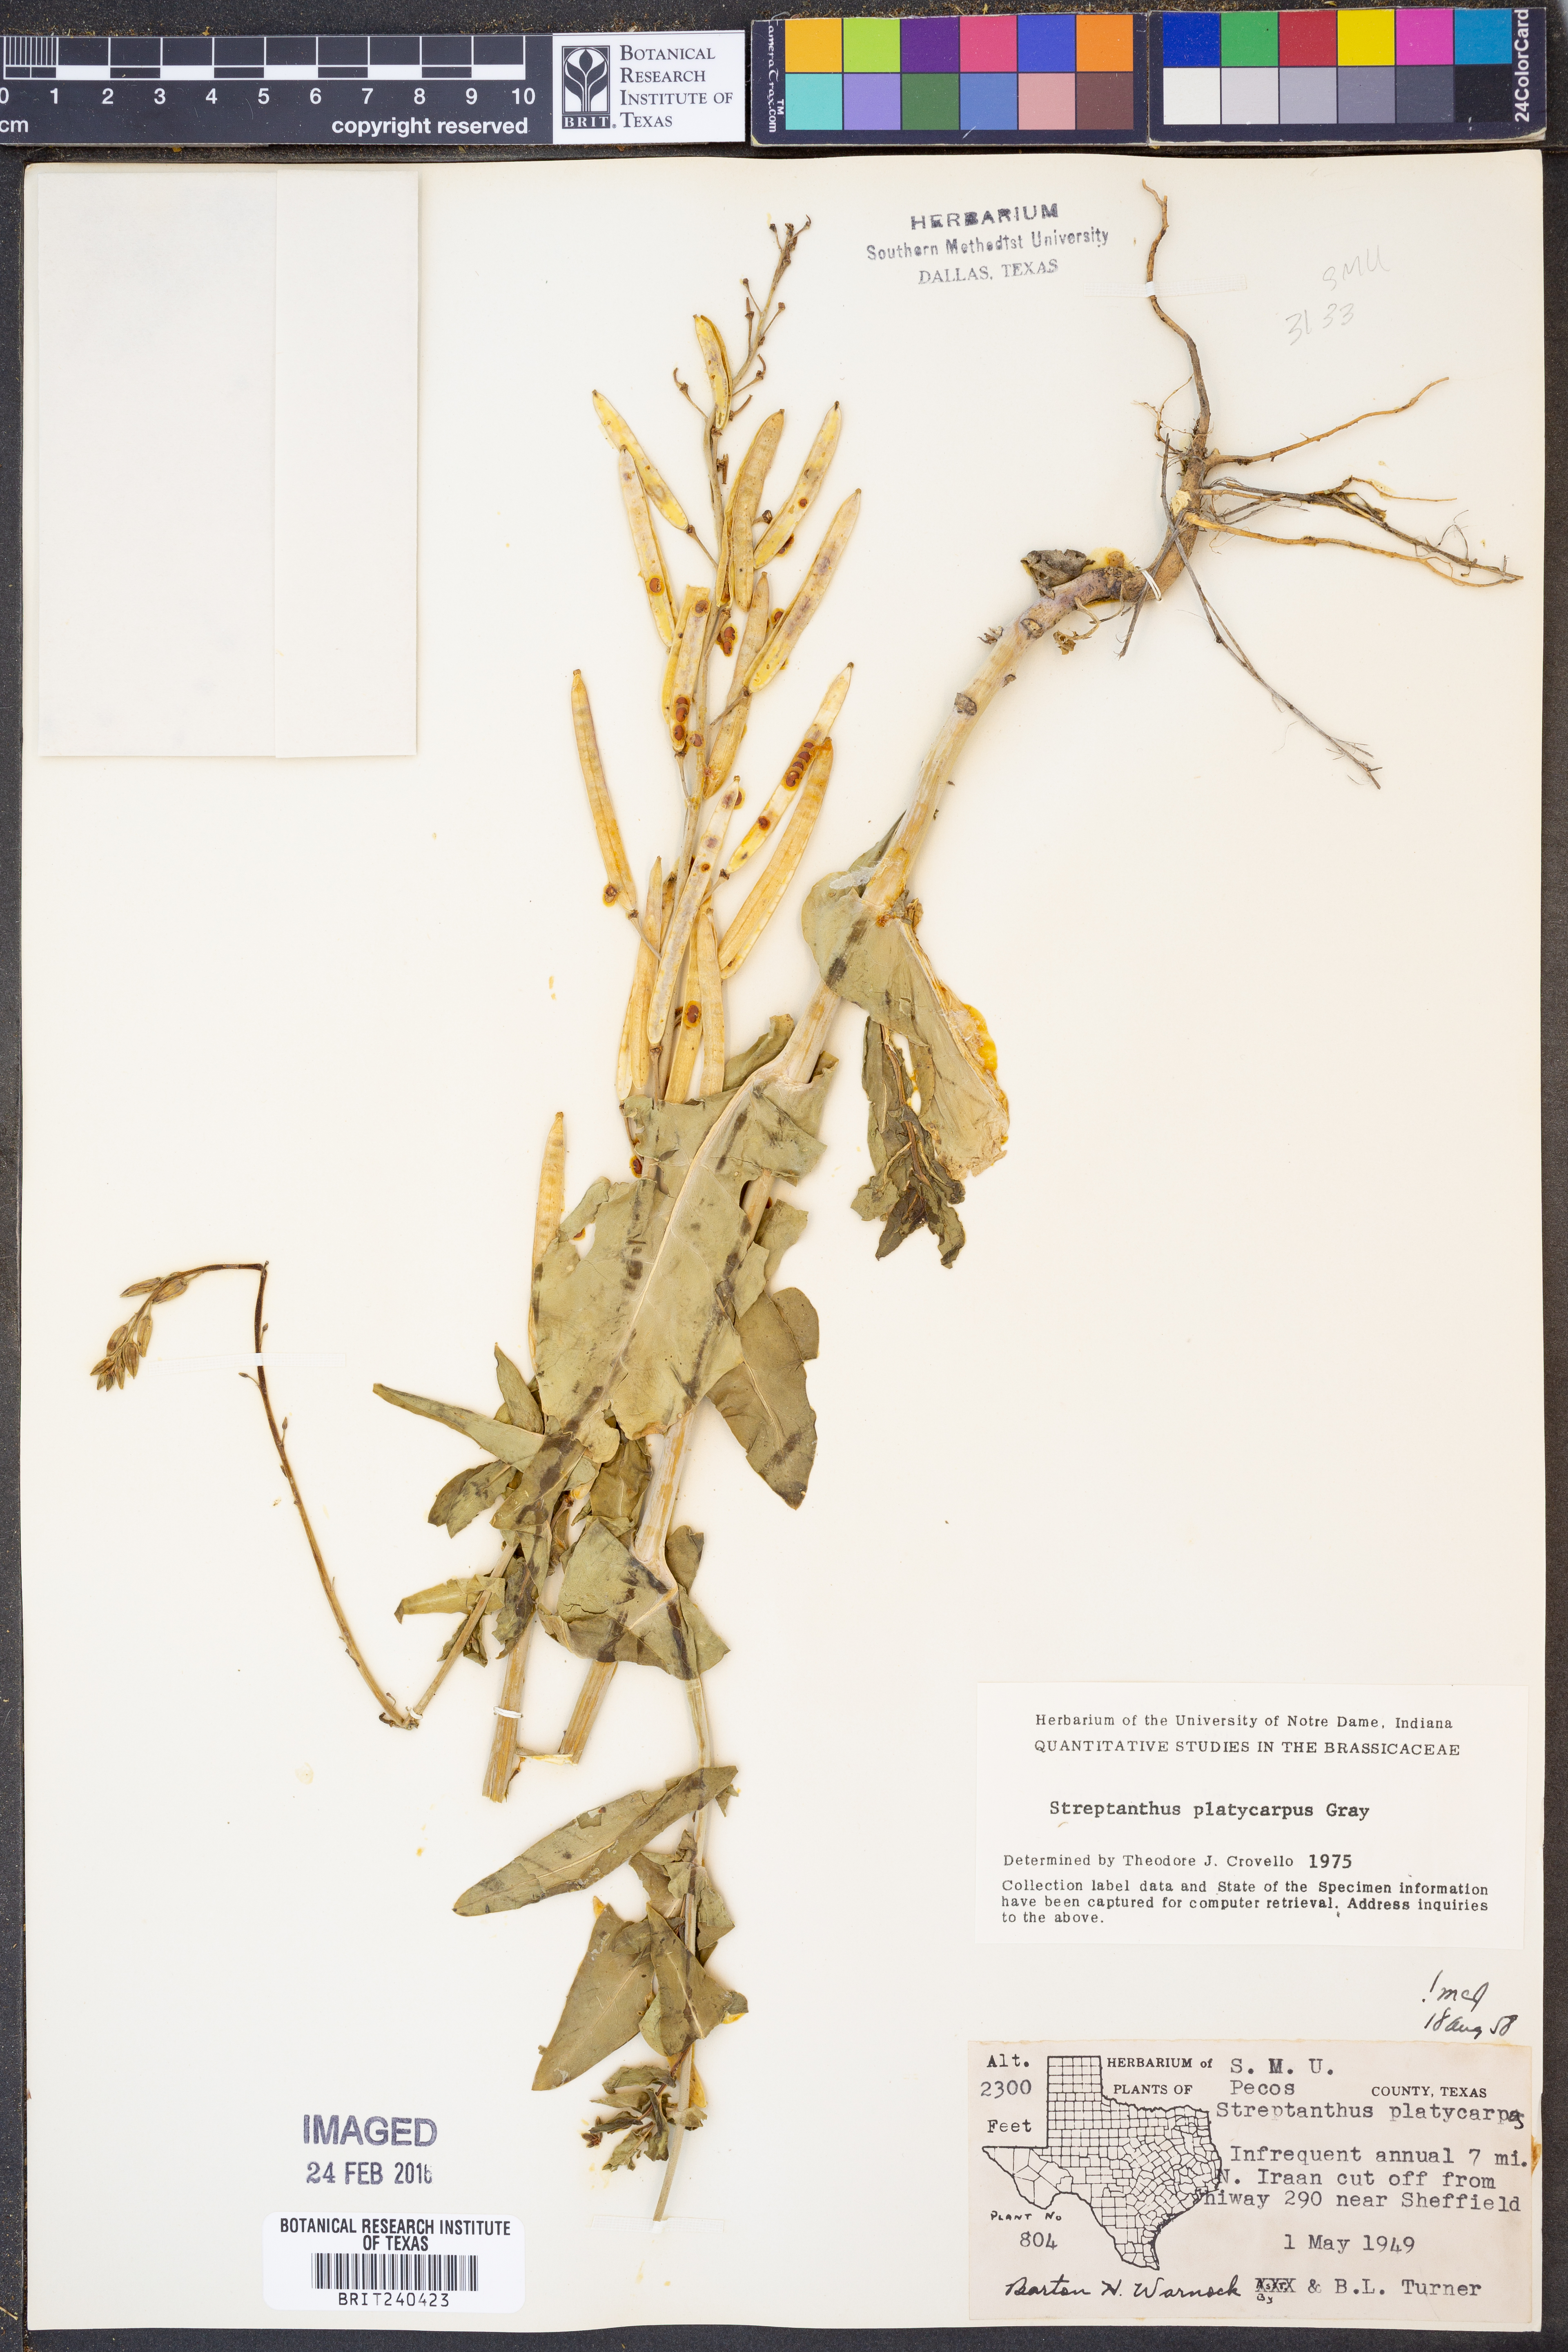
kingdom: Plantae
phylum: Tracheophyta
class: Magnoliopsida
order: Brassicales
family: Brassicaceae
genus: Streptanthus
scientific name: Streptanthus platycarpus
